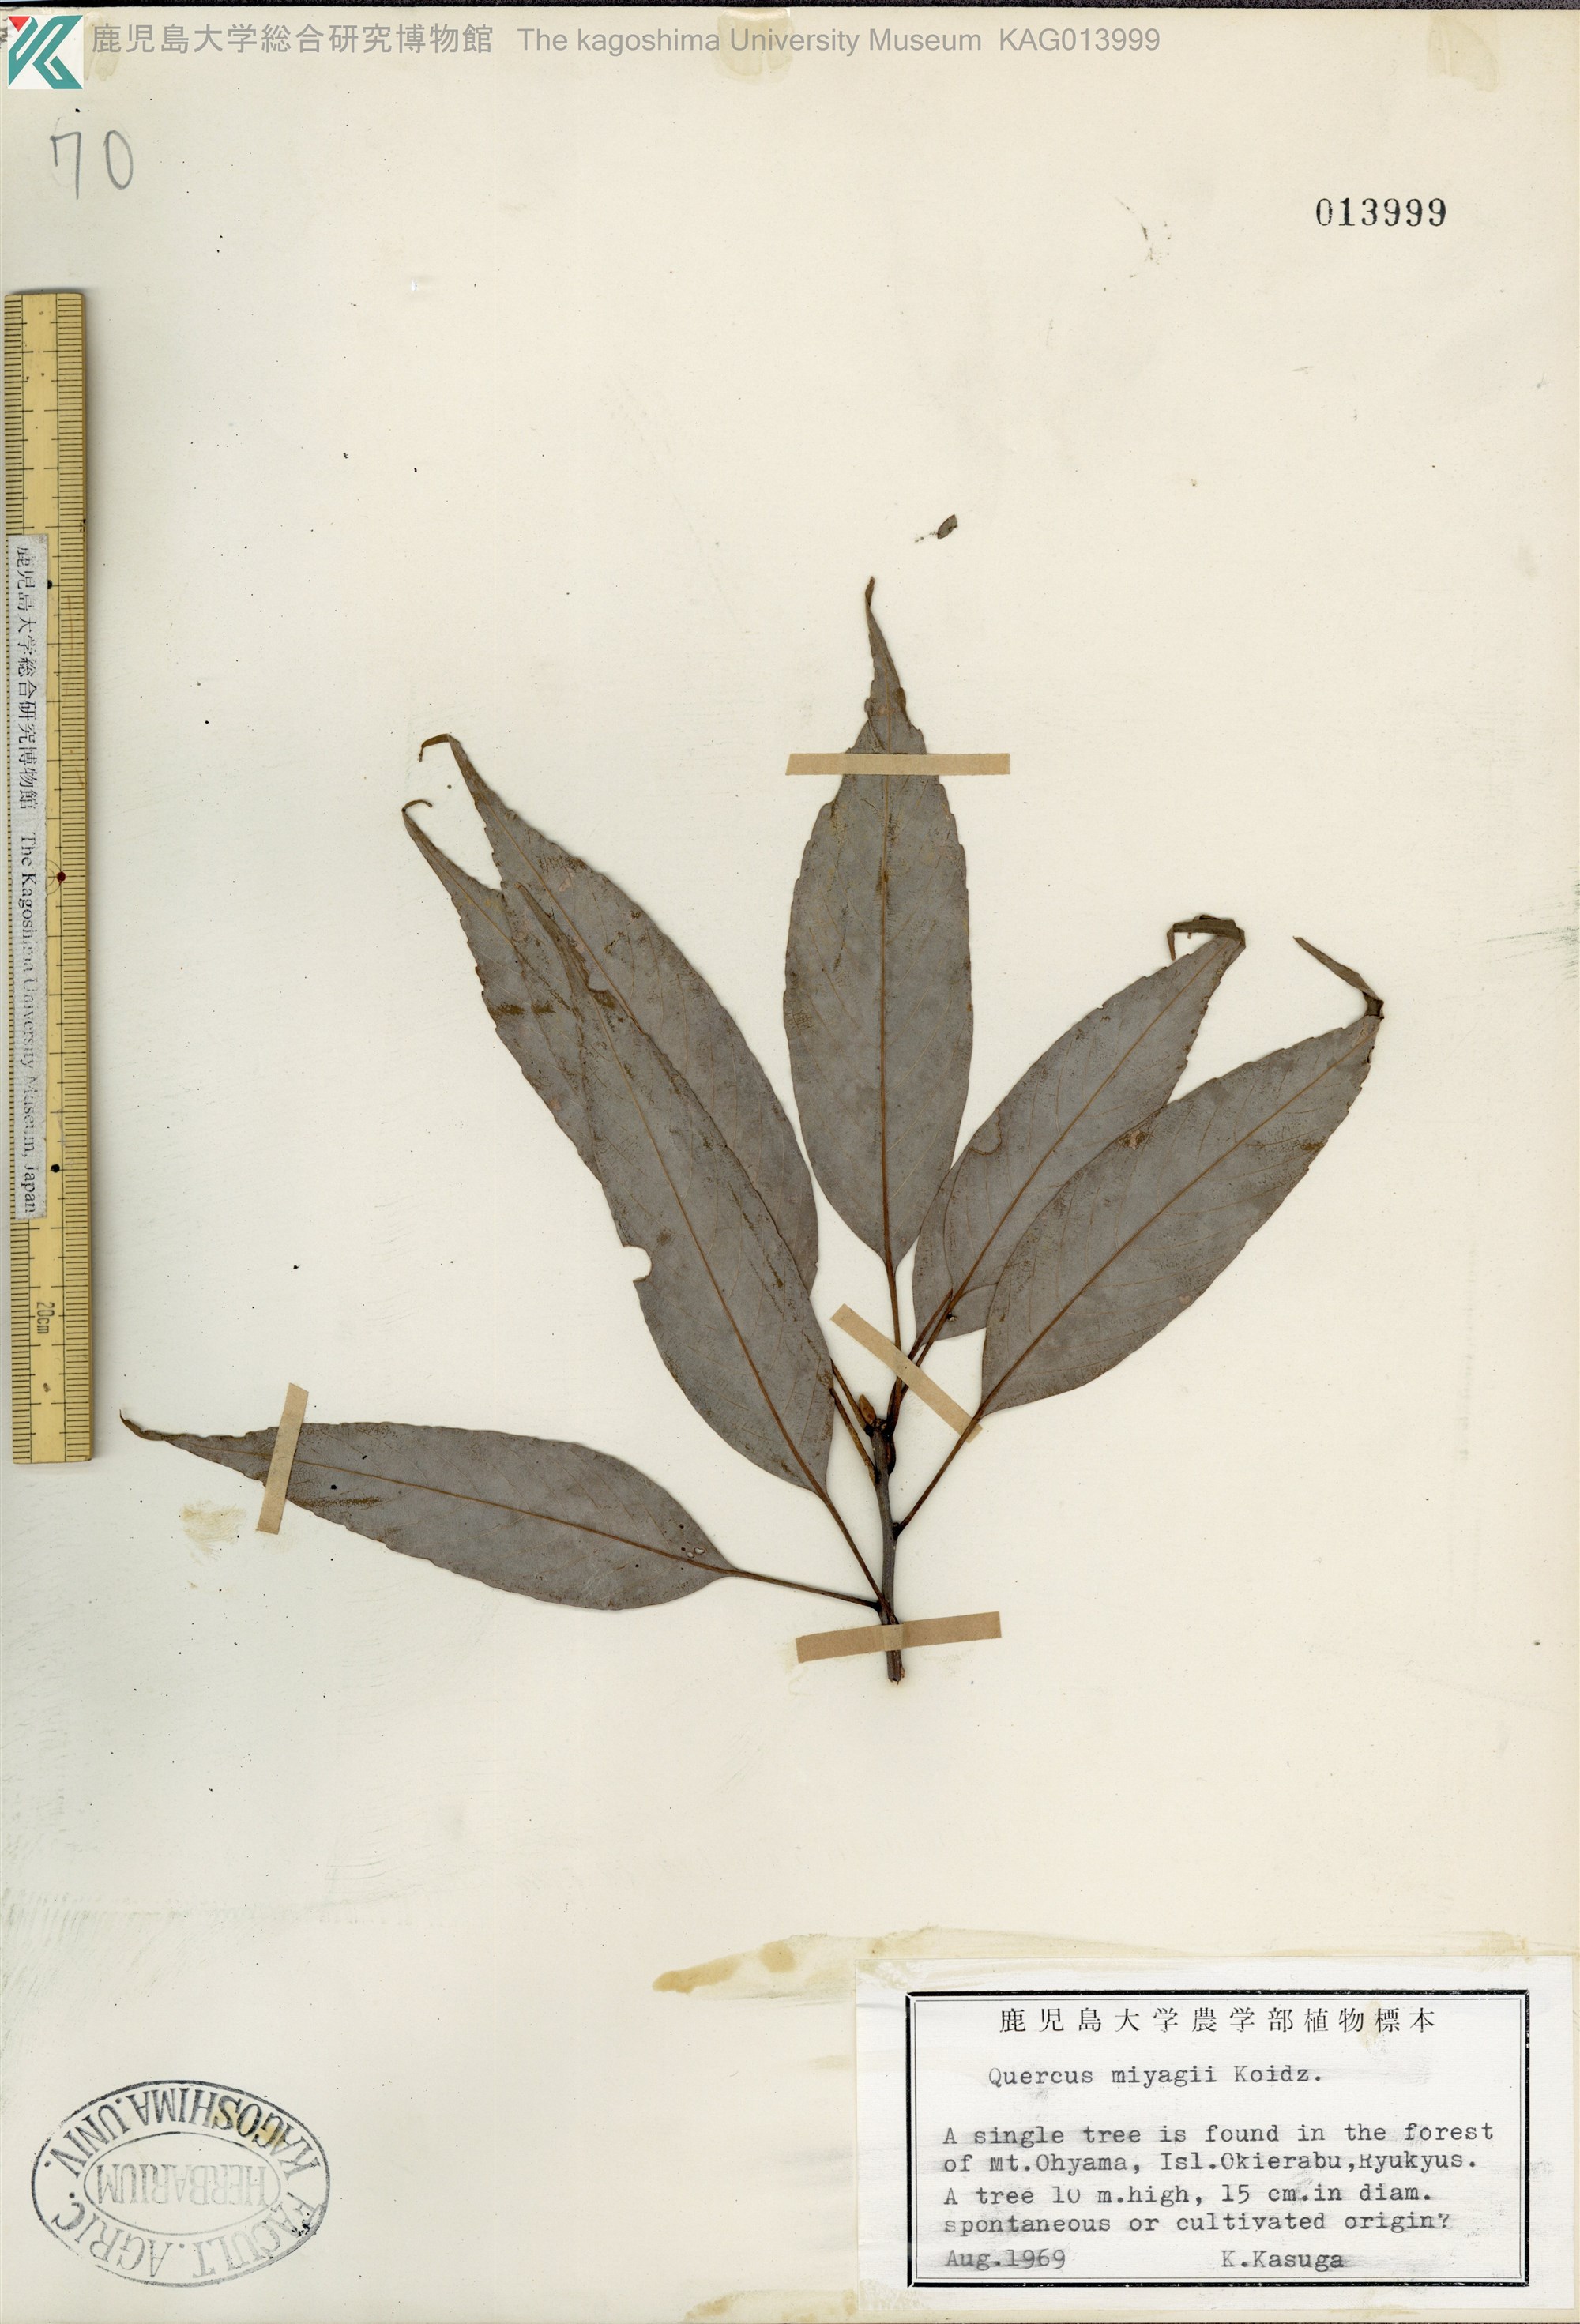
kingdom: Plantae
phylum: Tracheophyta
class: Magnoliopsida
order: Fagales
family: Fagaceae
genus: Quercus
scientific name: Quercus miyagii
